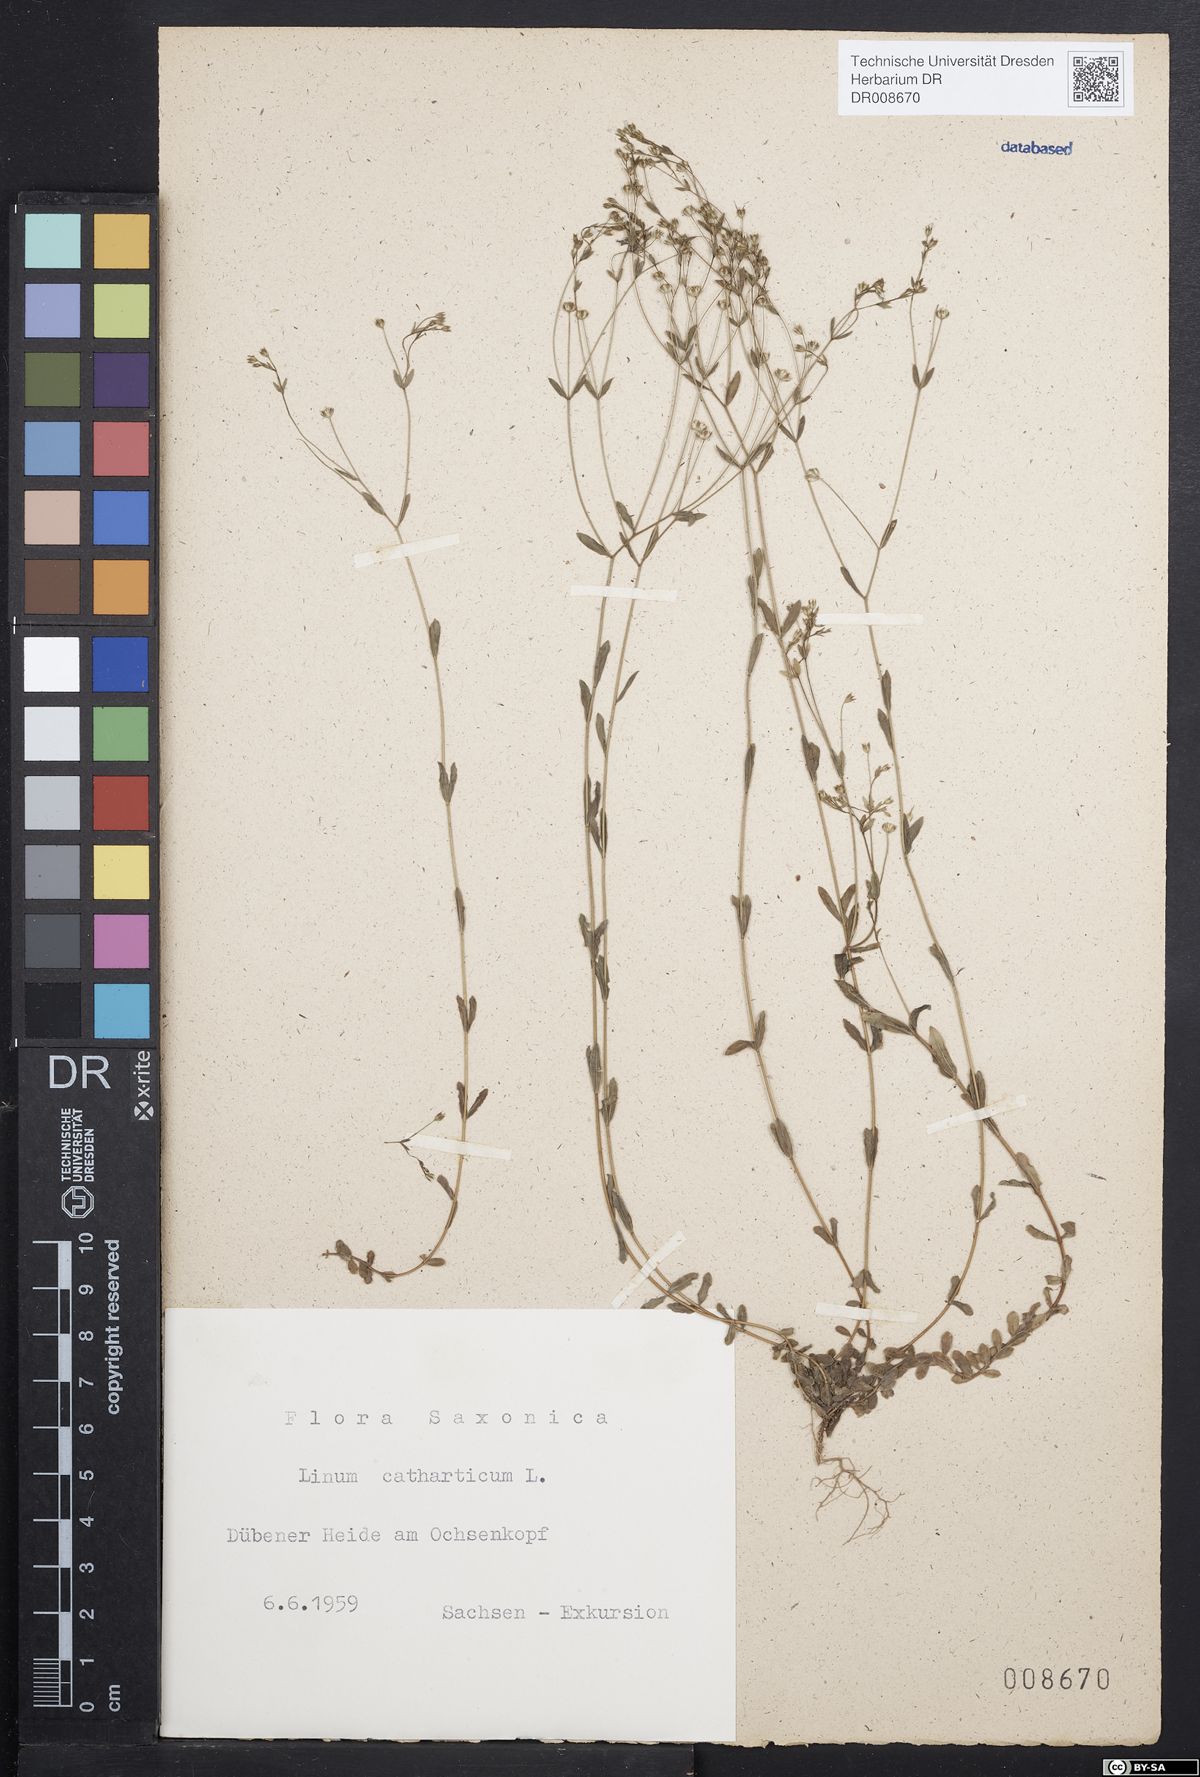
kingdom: Plantae
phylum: Tracheophyta
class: Magnoliopsida
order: Malpighiales
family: Linaceae
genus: Linum
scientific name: Linum catharticum
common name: Fairy flax
